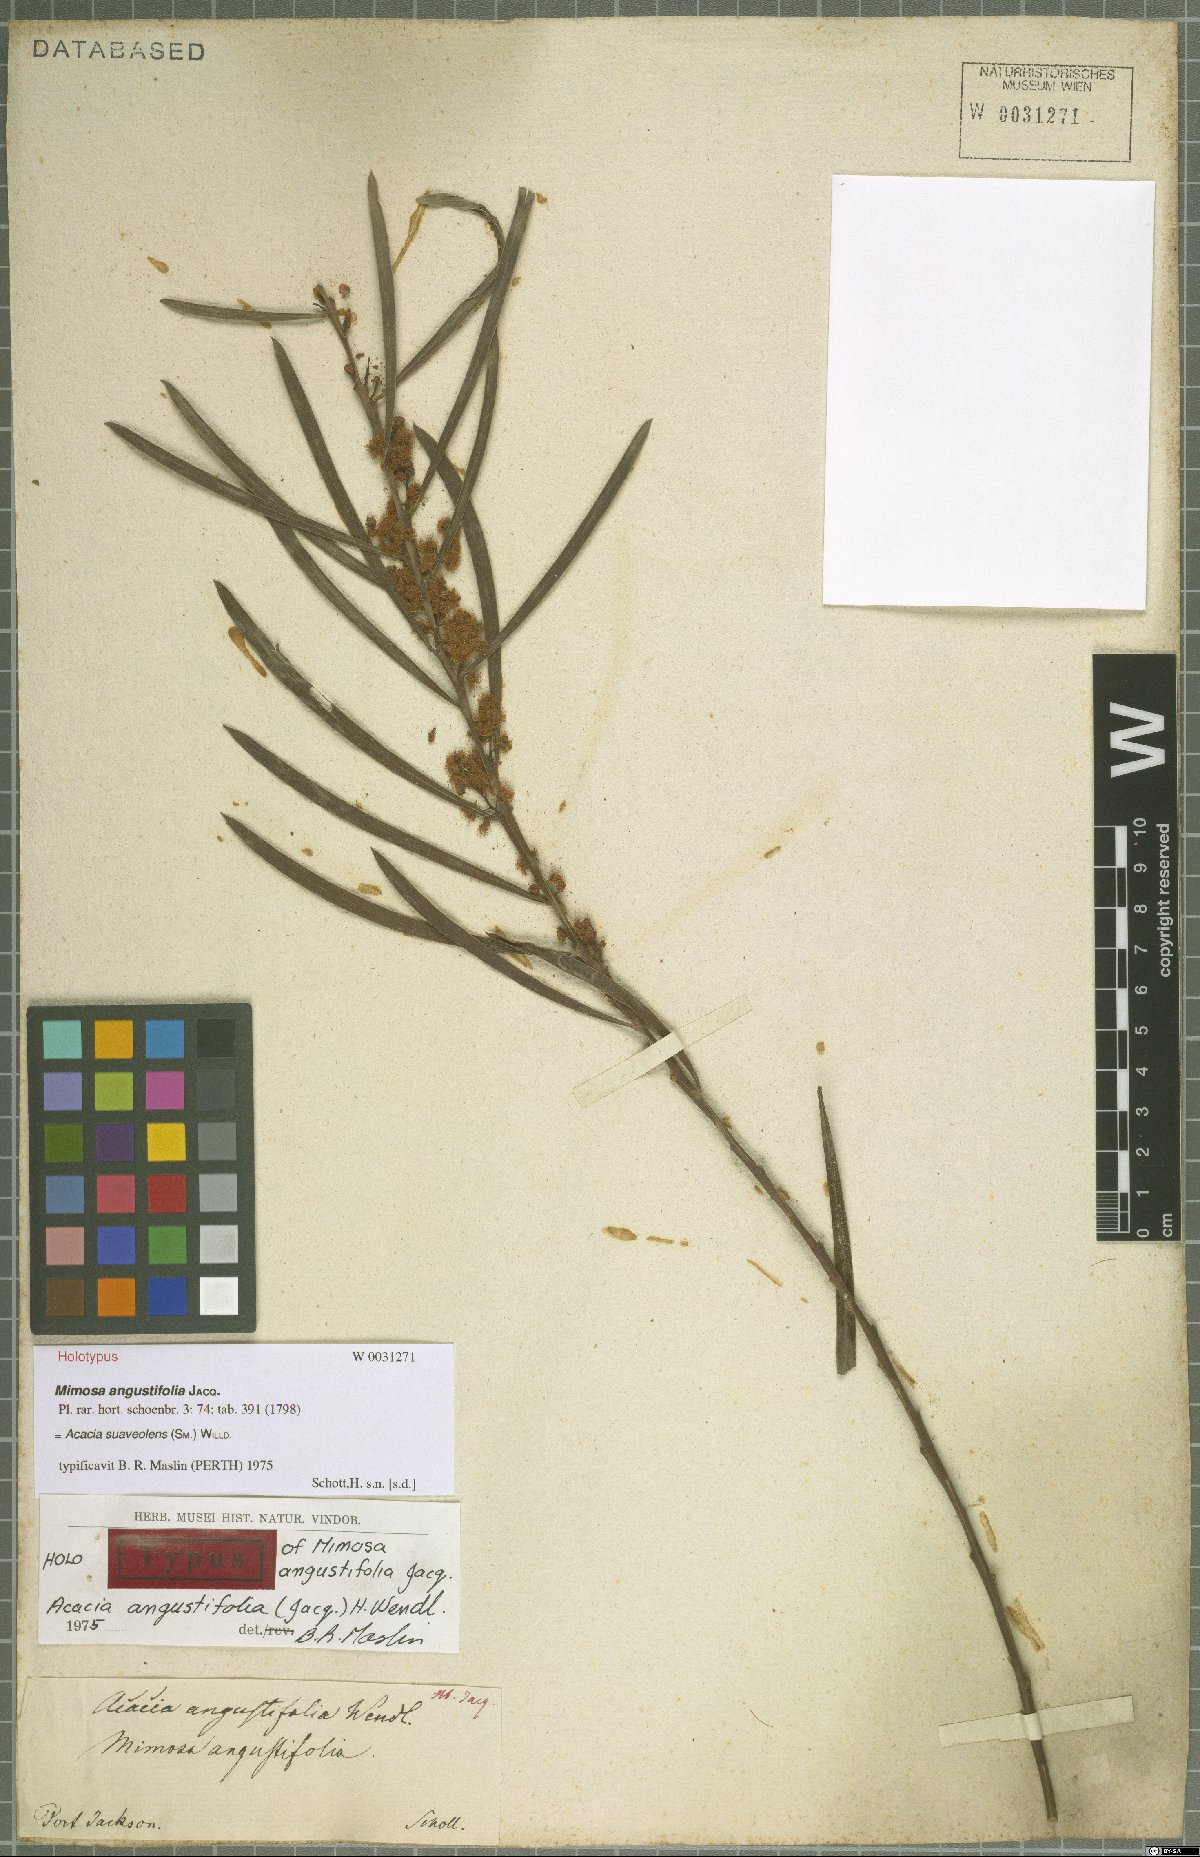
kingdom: Plantae
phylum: Tracheophyta
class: Magnoliopsida
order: Fabales
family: Fabaceae
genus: Acacia
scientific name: Acacia suaveolens
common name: Sweet acacia
